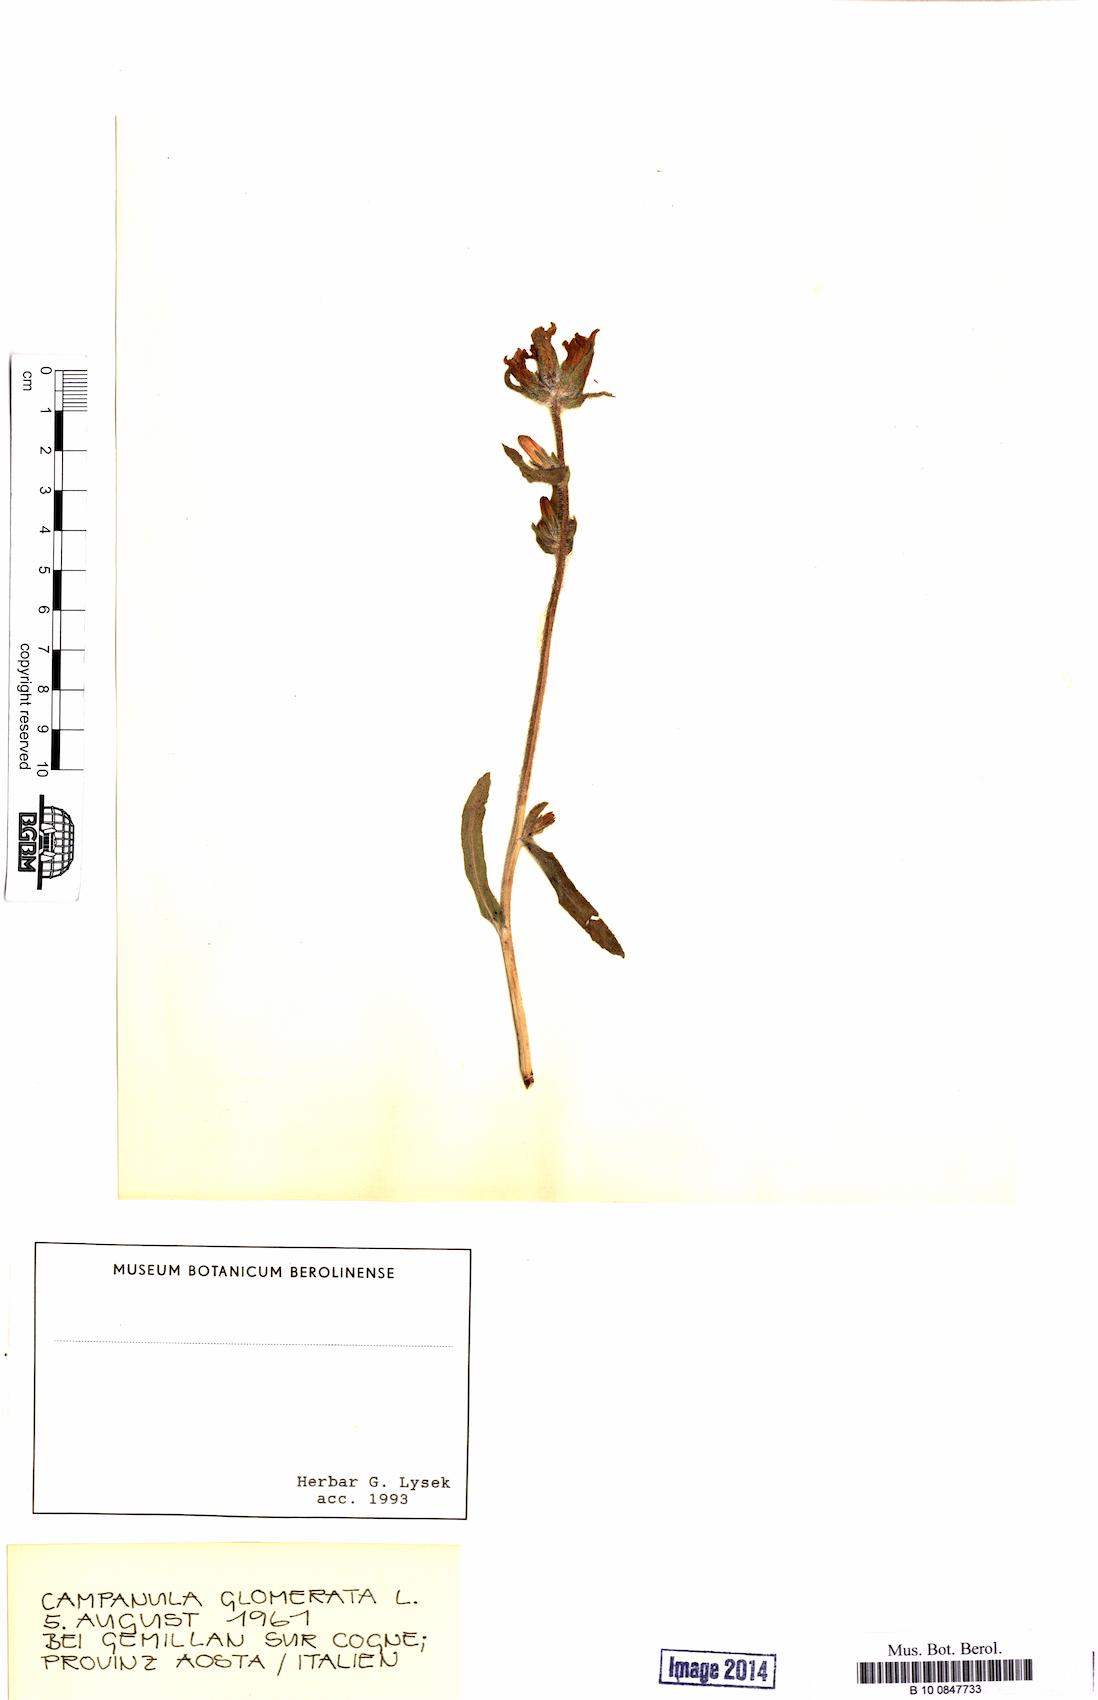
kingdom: Plantae
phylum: Tracheophyta
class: Magnoliopsida
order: Asterales
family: Campanulaceae
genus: Campanula
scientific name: Campanula glomerata
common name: Clustered bellflower
